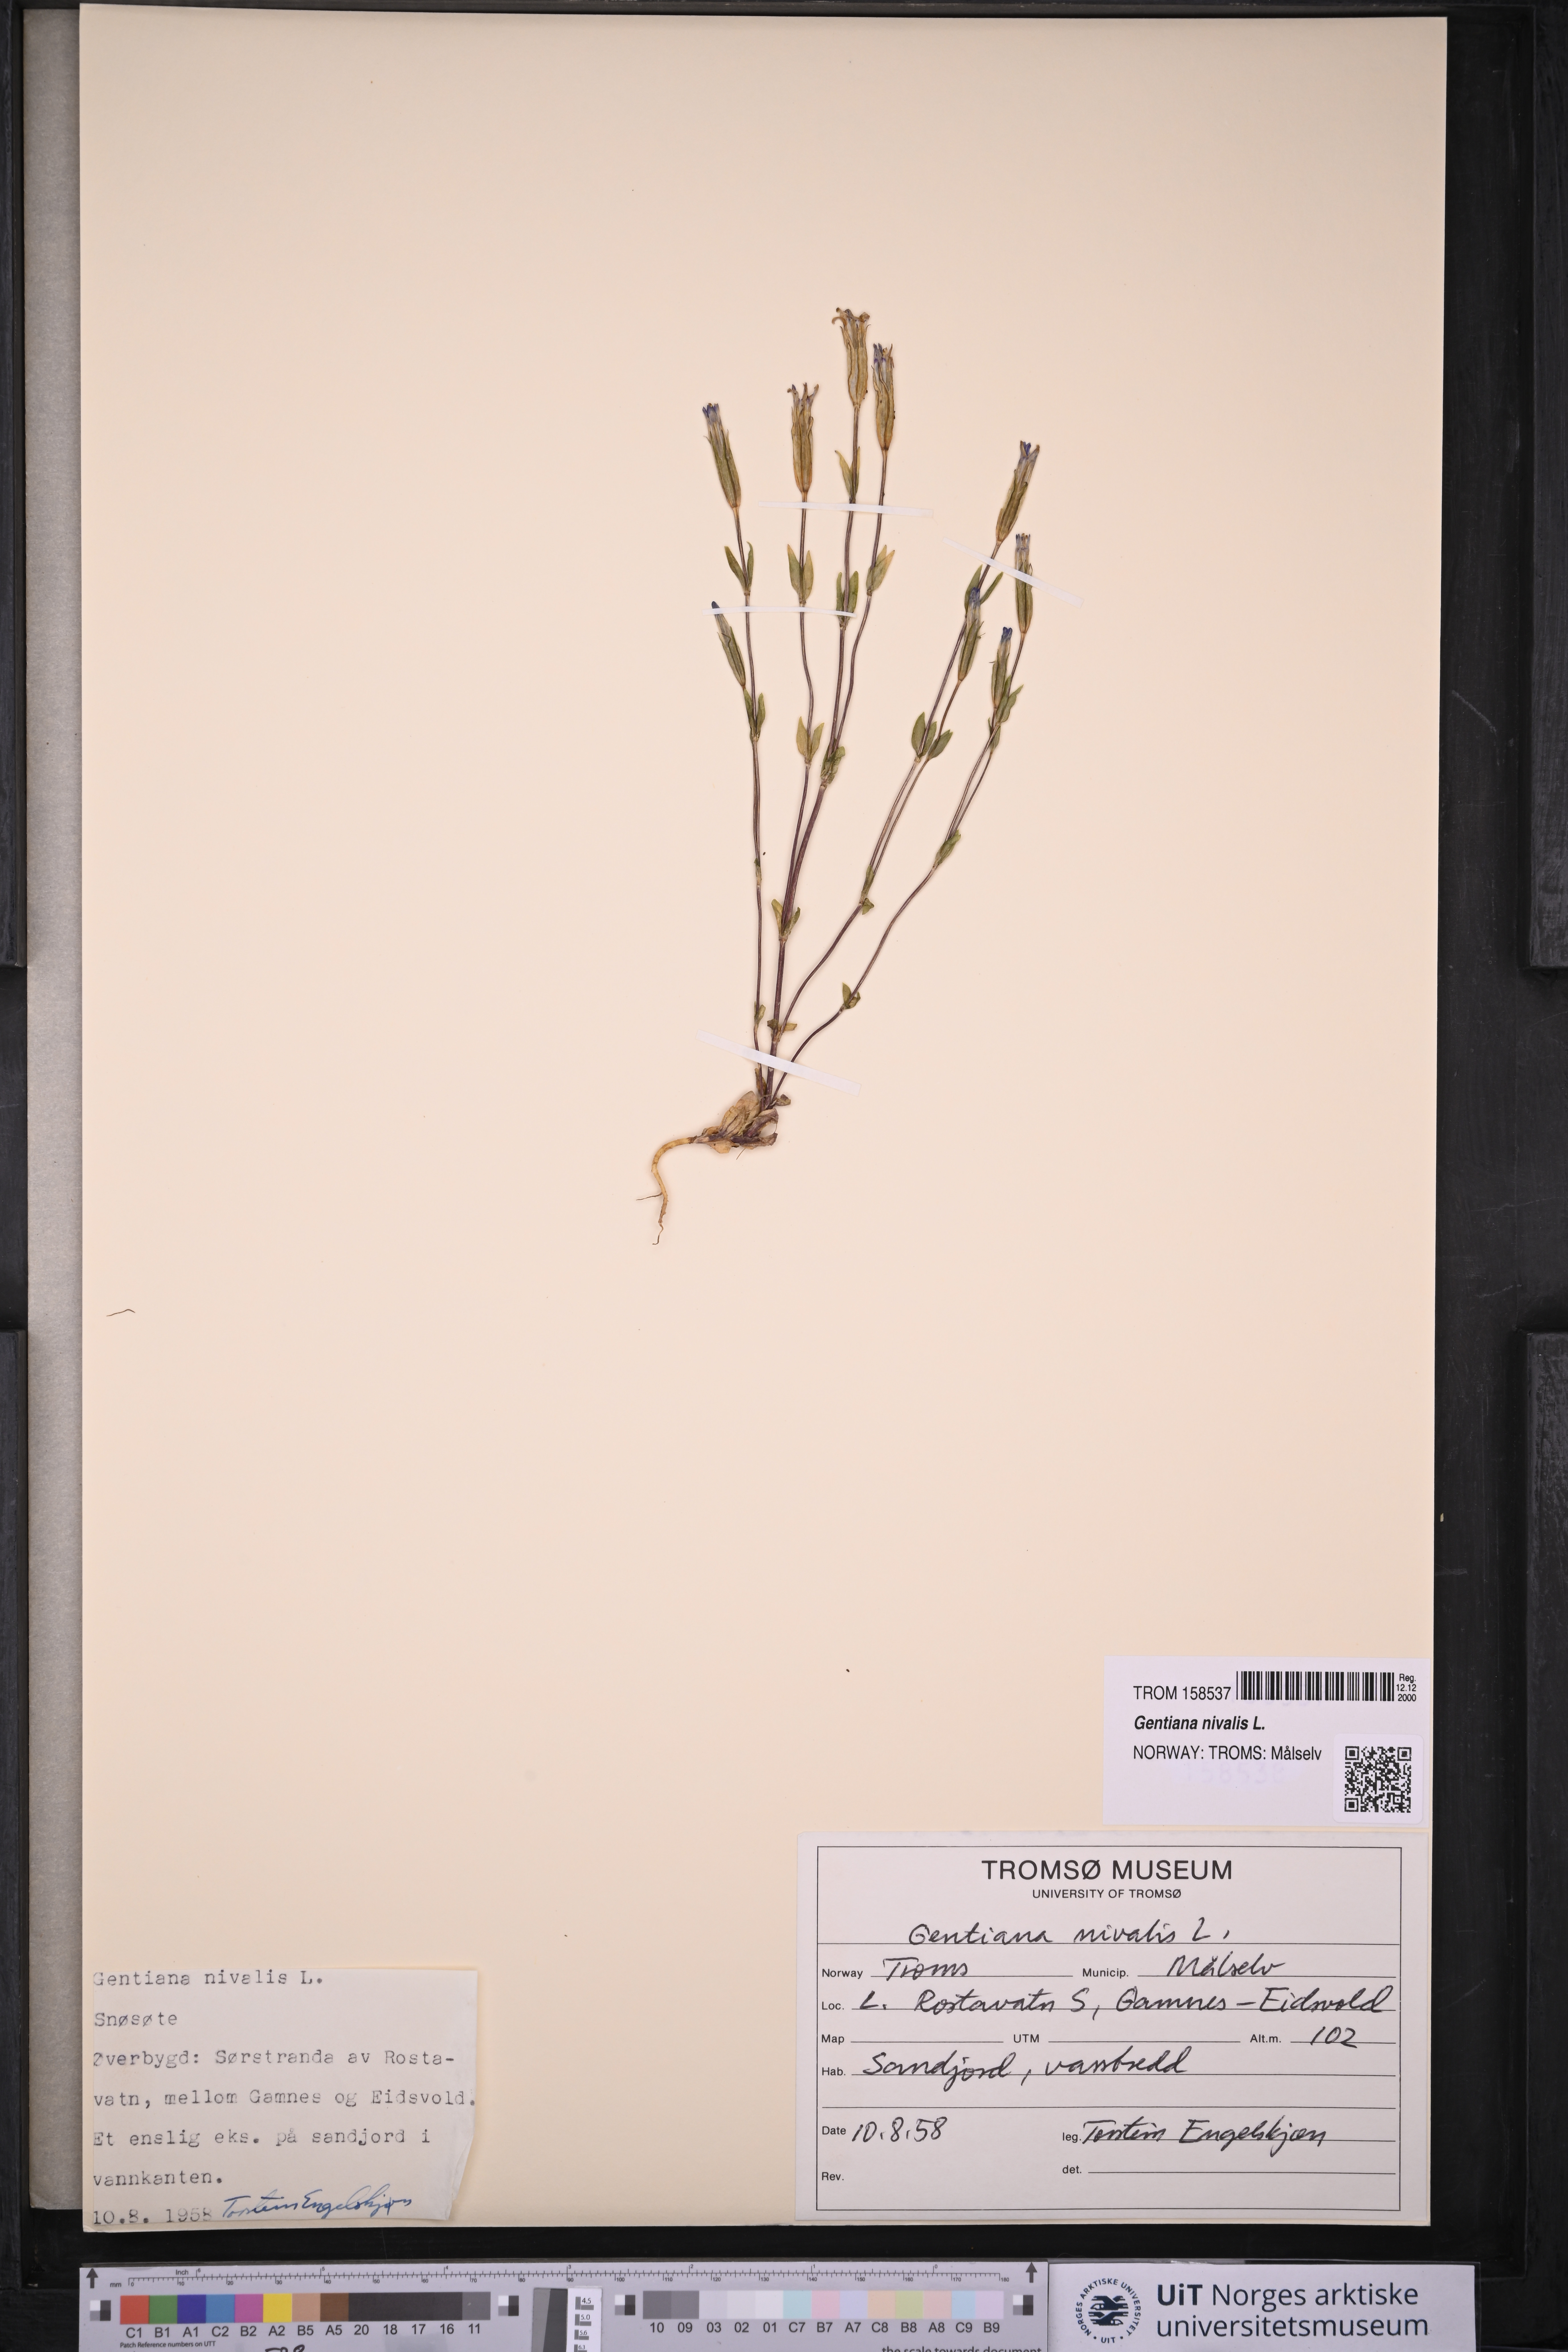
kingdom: Plantae
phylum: Tracheophyta
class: Magnoliopsida
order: Gentianales
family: Gentianaceae
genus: Gentiana
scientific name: Gentiana nivalis
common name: Alpine gentian
